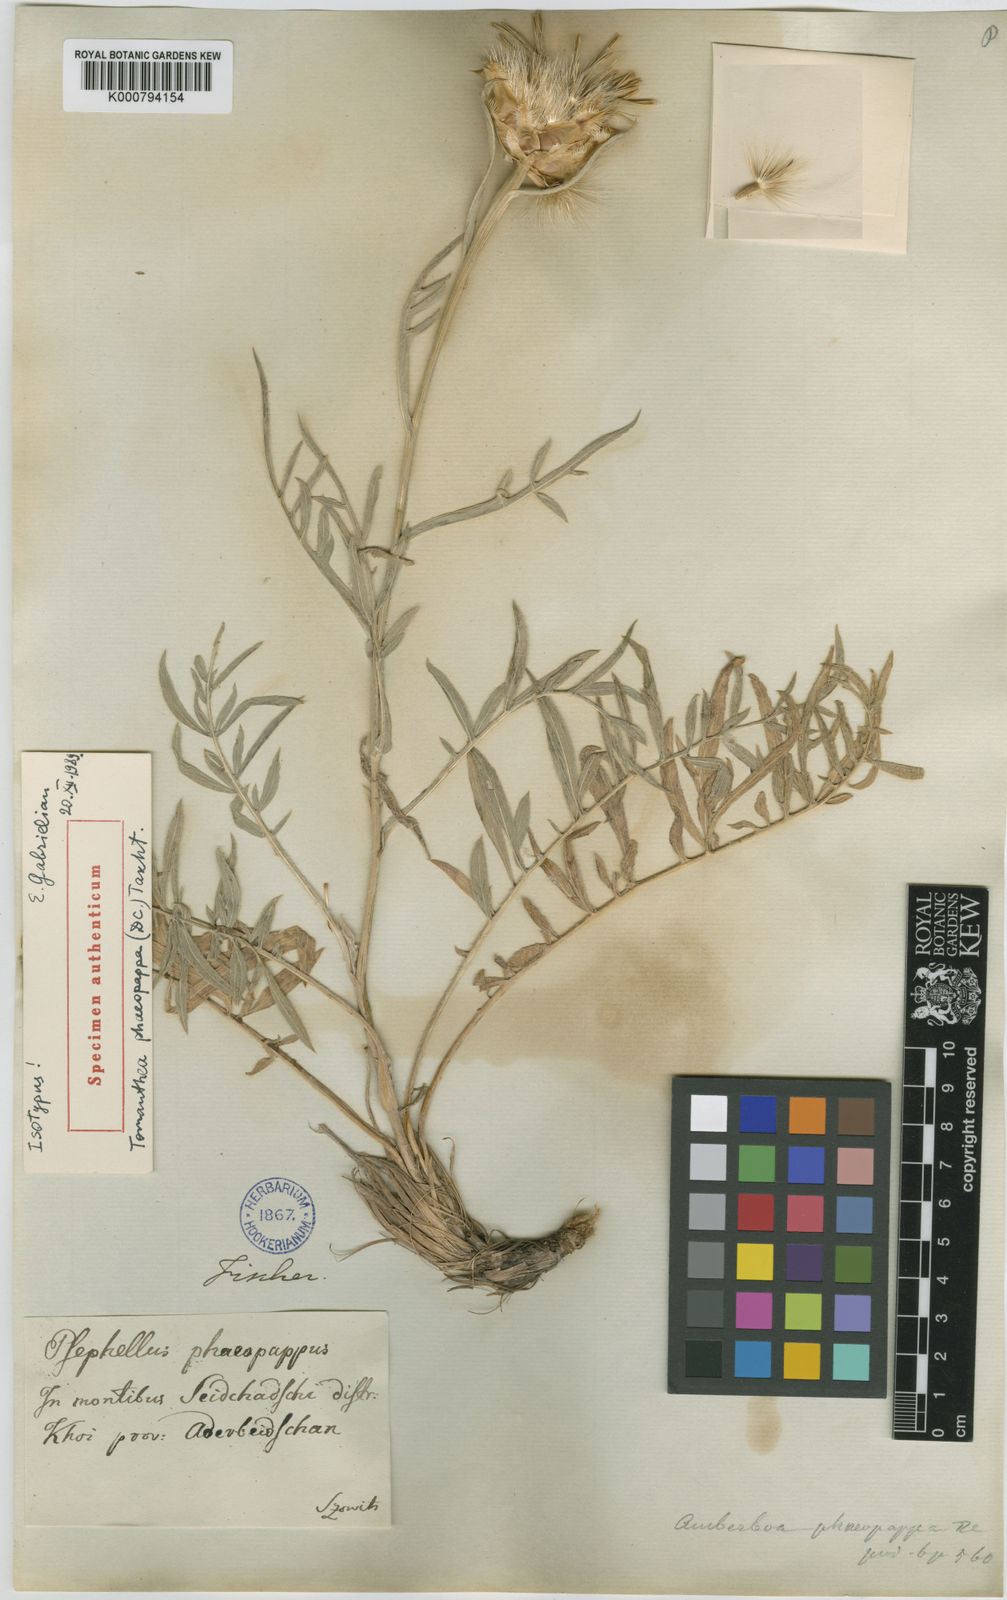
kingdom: Plantae
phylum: Tracheophyta
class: Magnoliopsida
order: Asterales
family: Asteraceae
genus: Centaurea
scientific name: Centaurea aucheri
